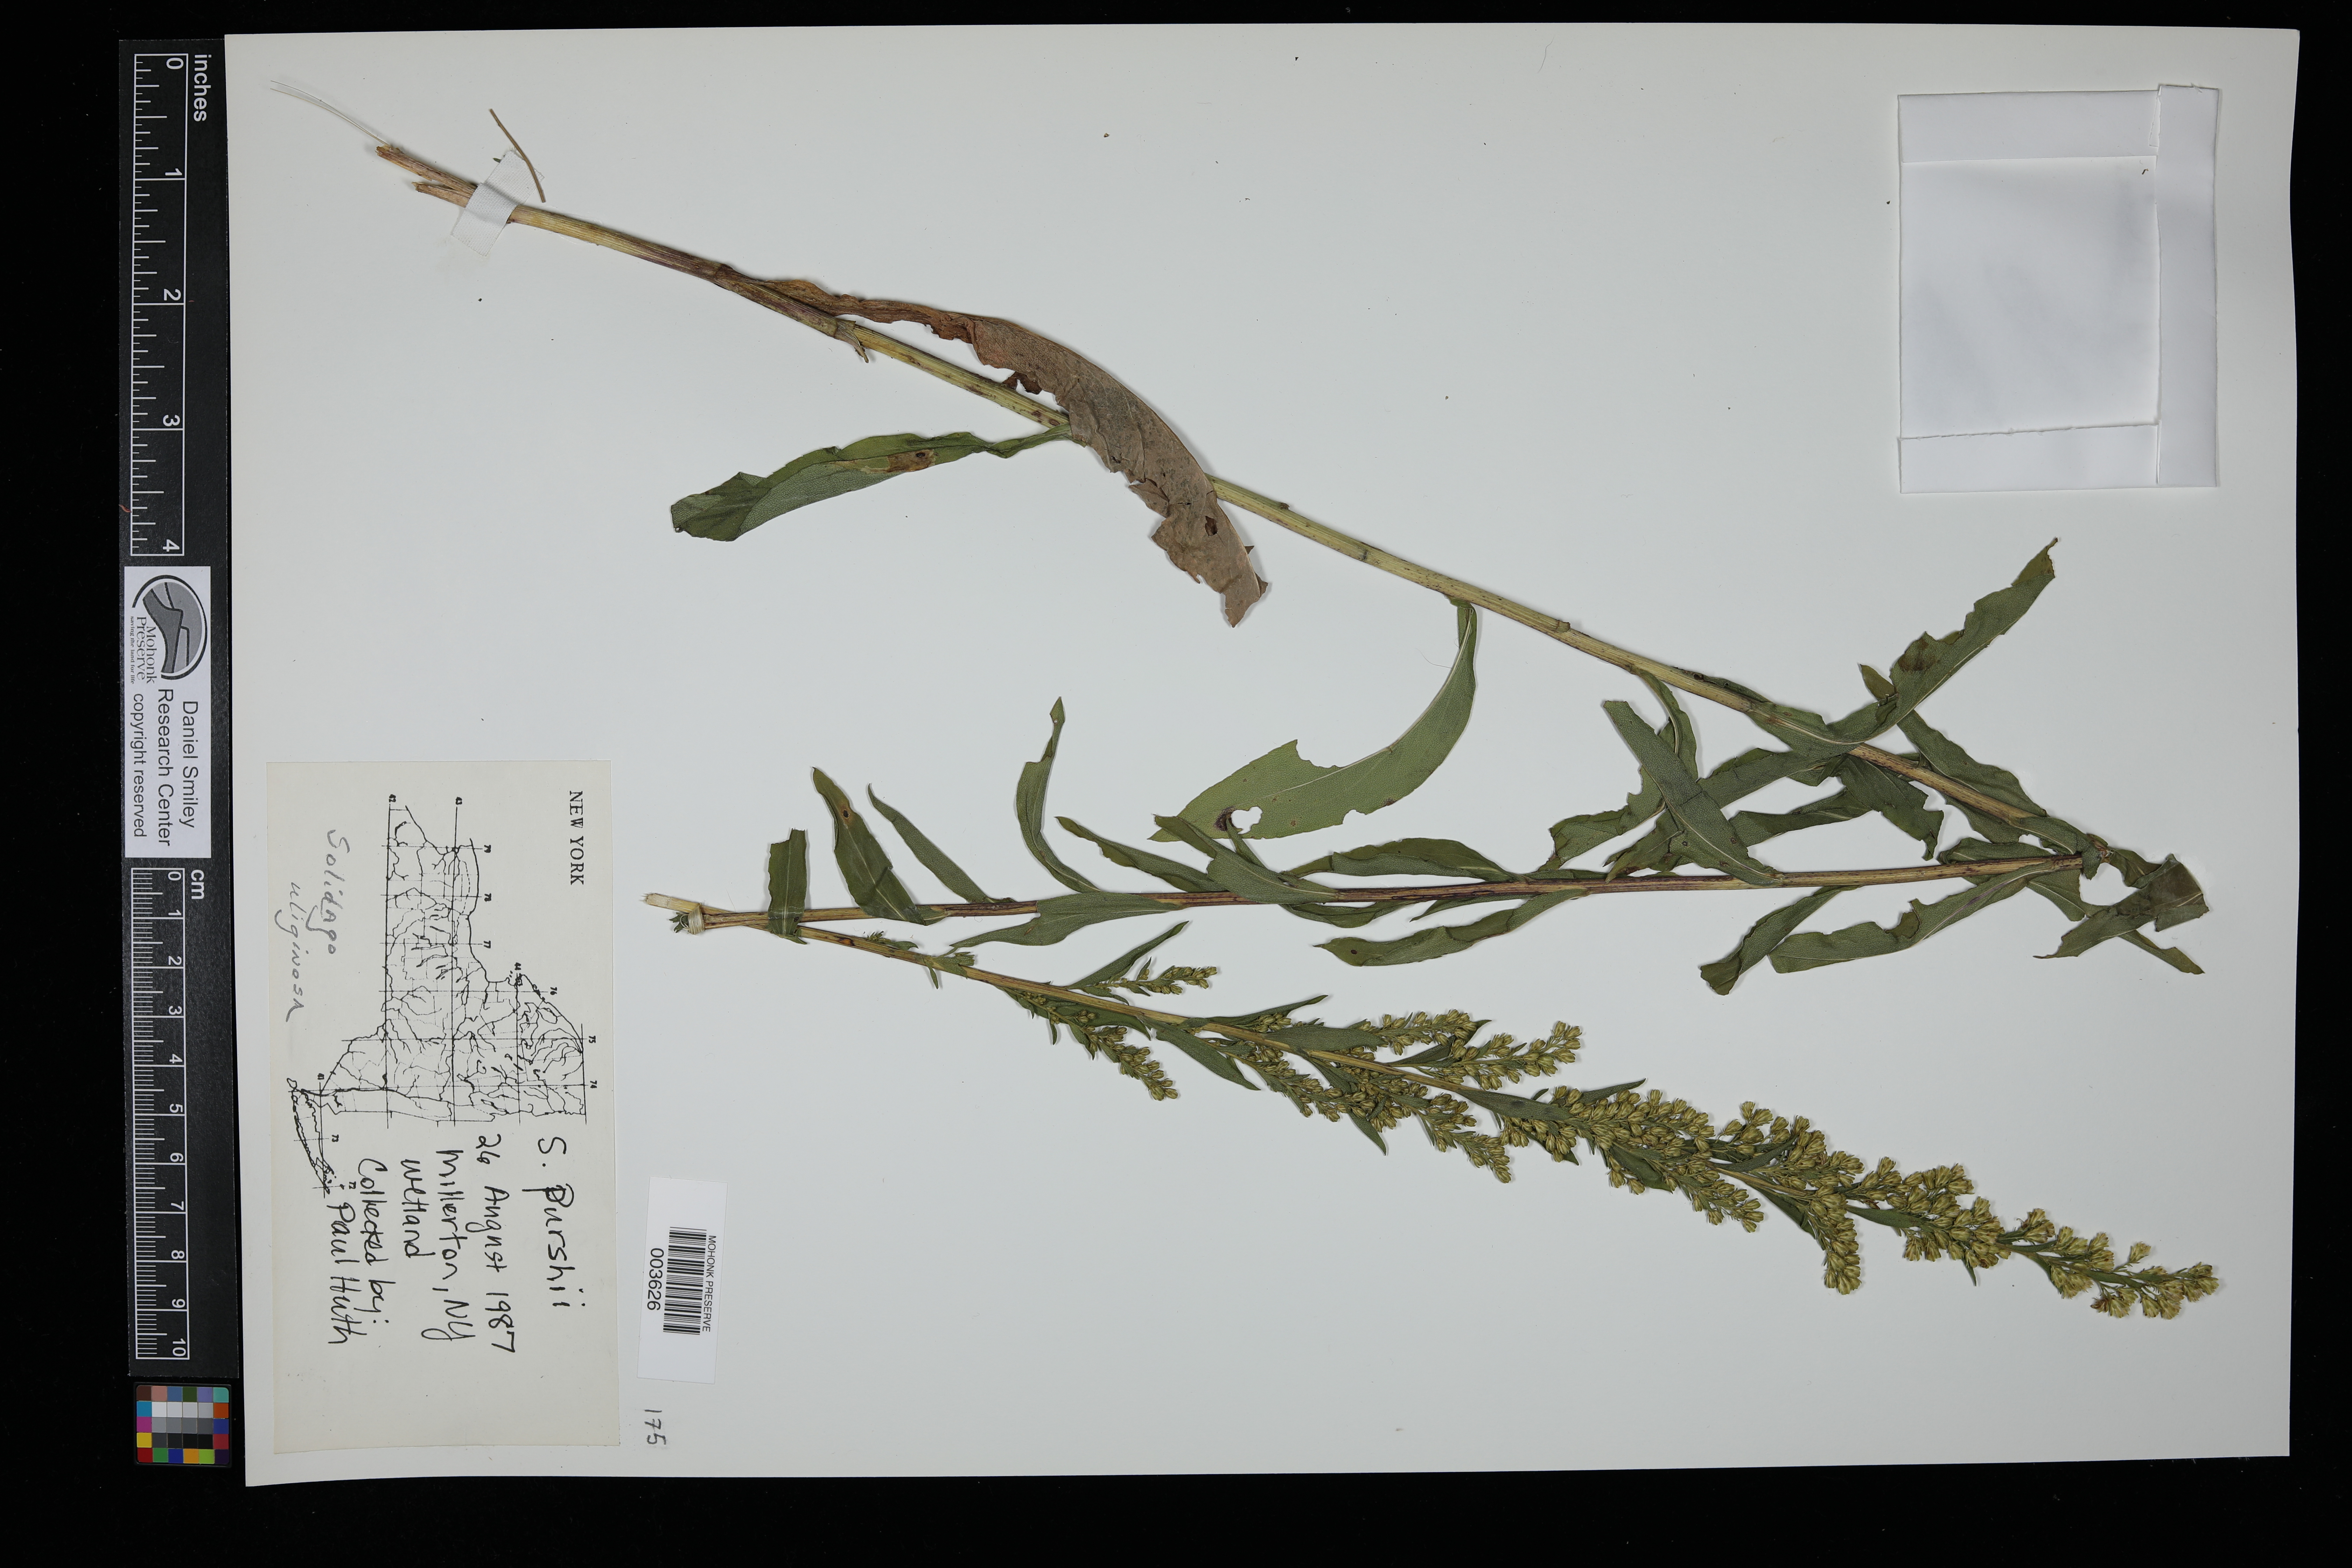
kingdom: Plantae
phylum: Tracheophyta
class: Magnoliopsida
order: Asterales
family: Asteraceae
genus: Solidago
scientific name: Solidago uliginosa
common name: Bog goldenrod
